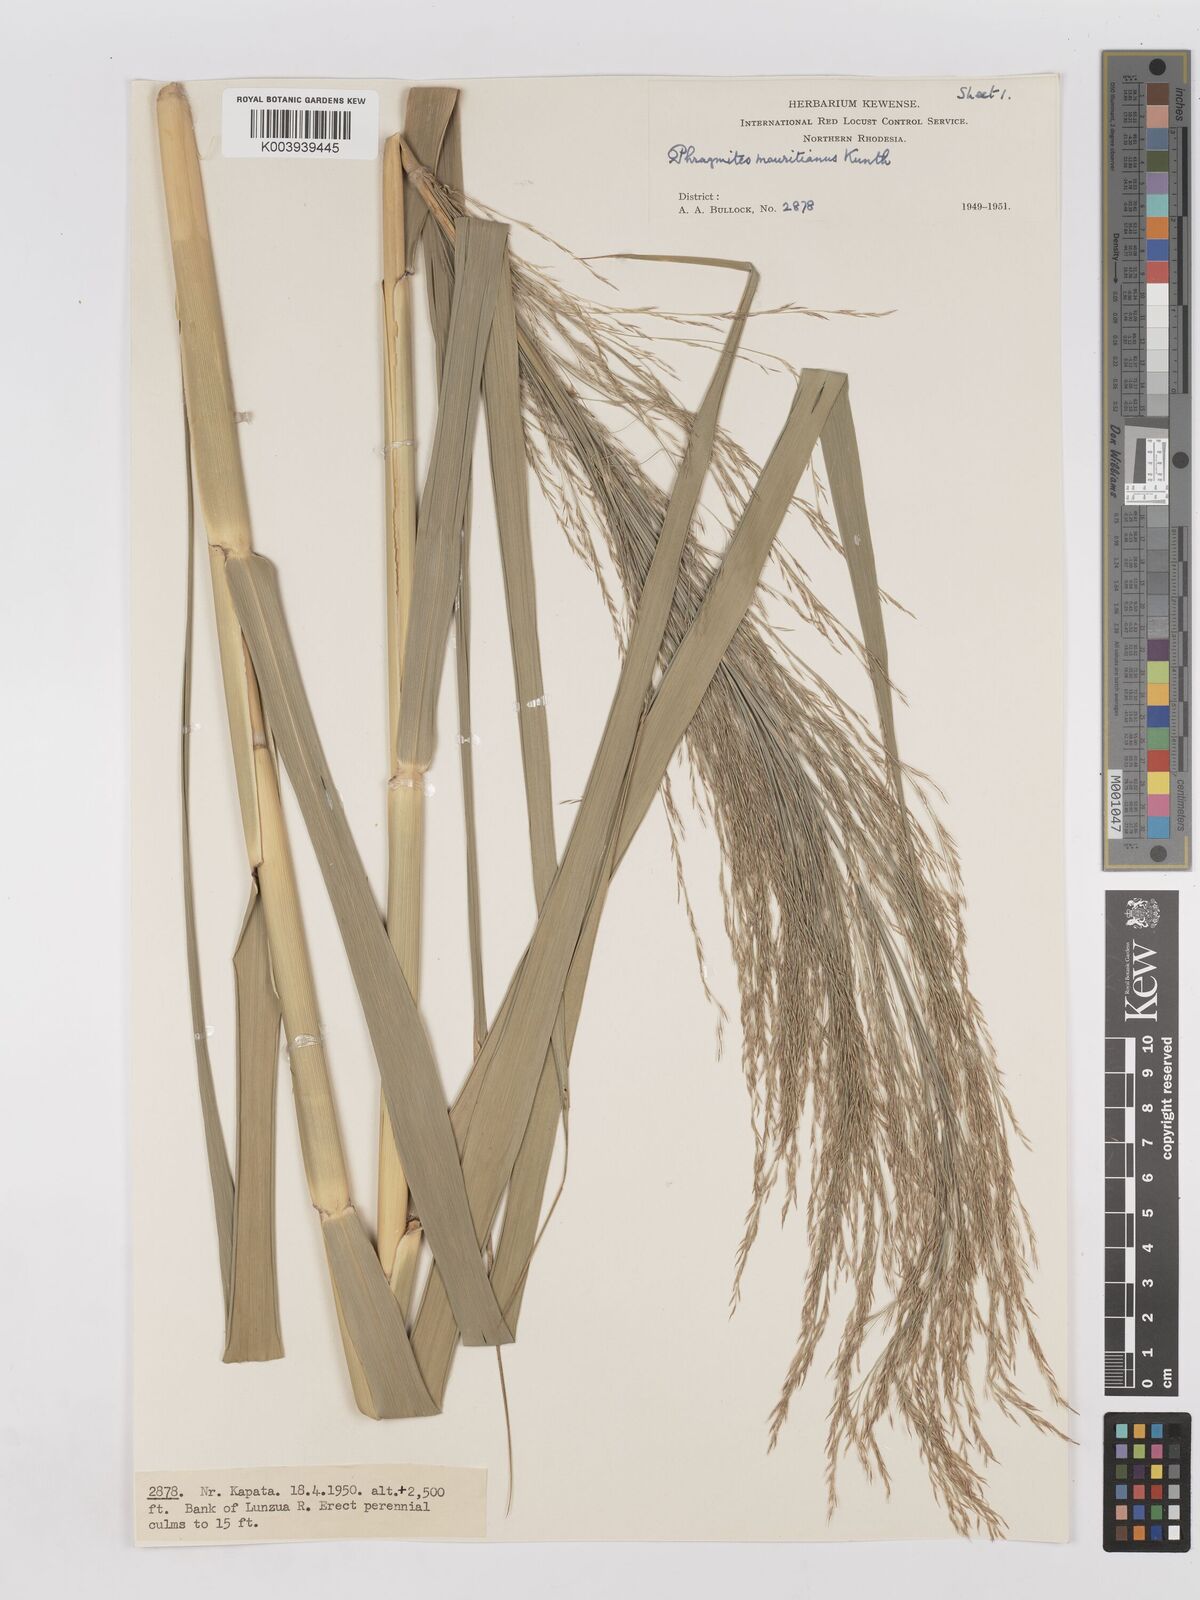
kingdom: Plantae
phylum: Tracheophyta
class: Liliopsida
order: Poales
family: Poaceae
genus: Phragmites
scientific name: Phragmites mauritianus
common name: Reed grass
